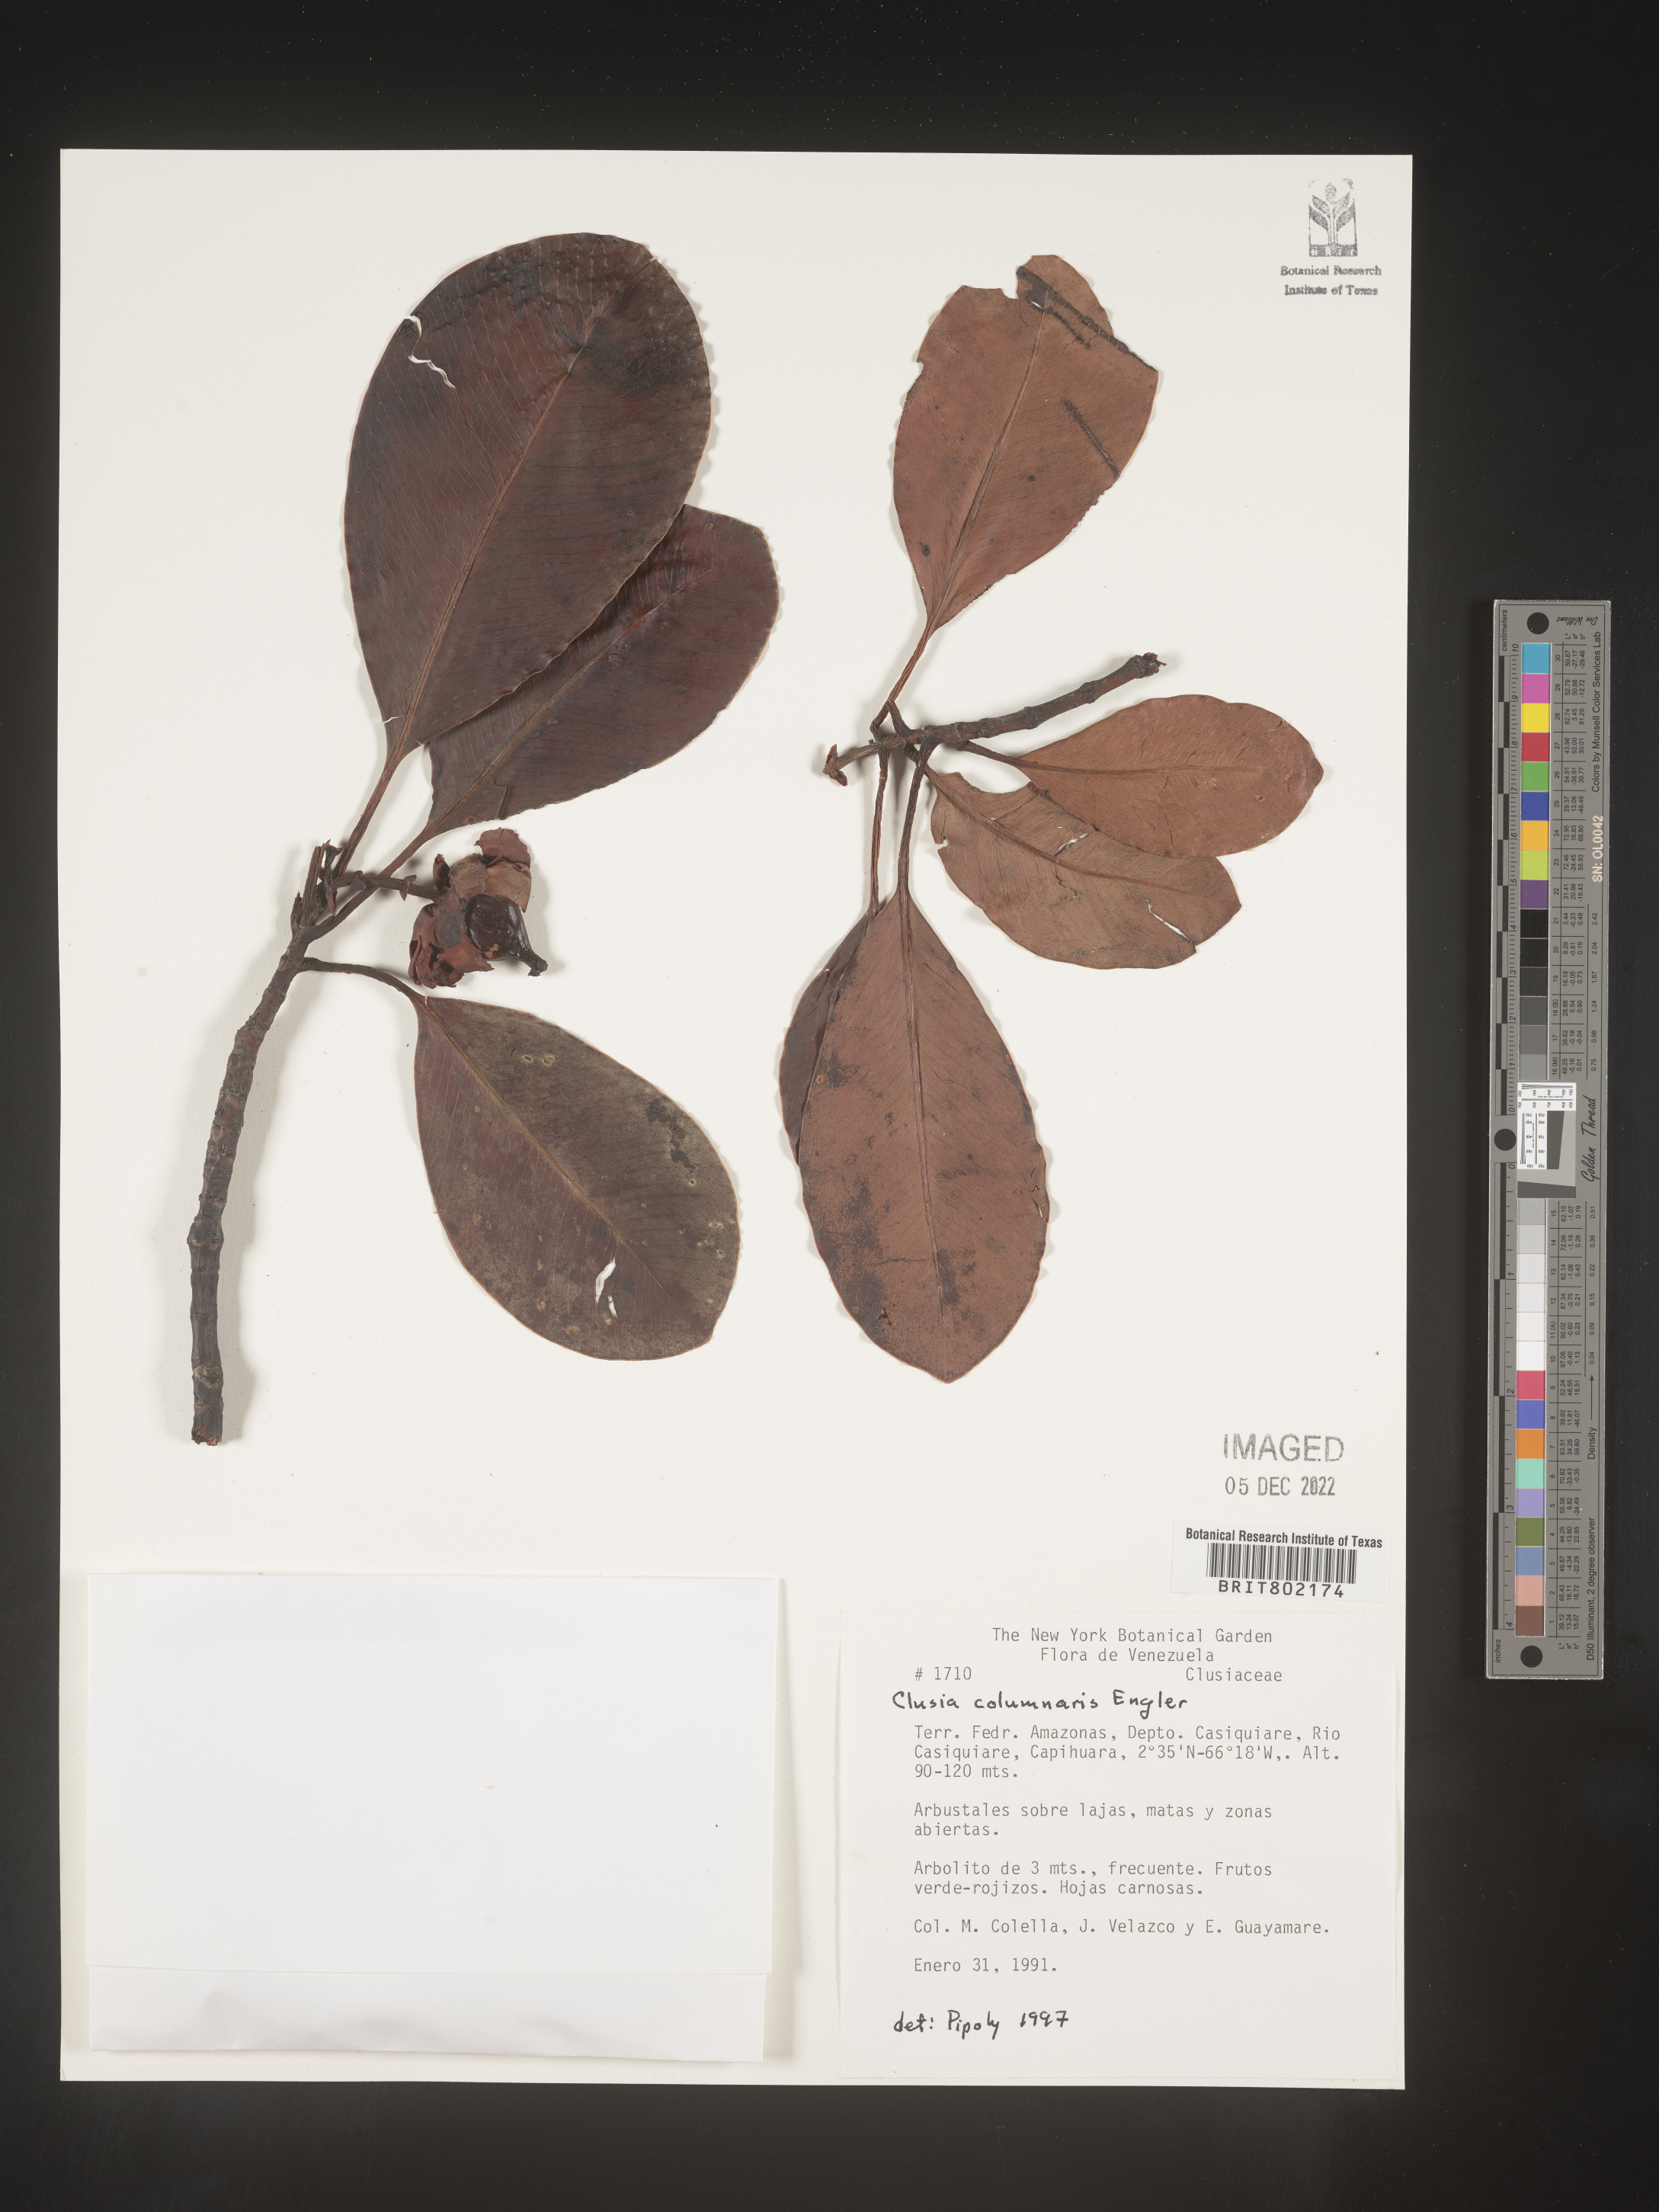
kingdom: Plantae
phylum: Tracheophyta
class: Magnoliopsida
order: Malpighiales
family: Clusiaceae
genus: Clusia
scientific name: Clusia columnaris
